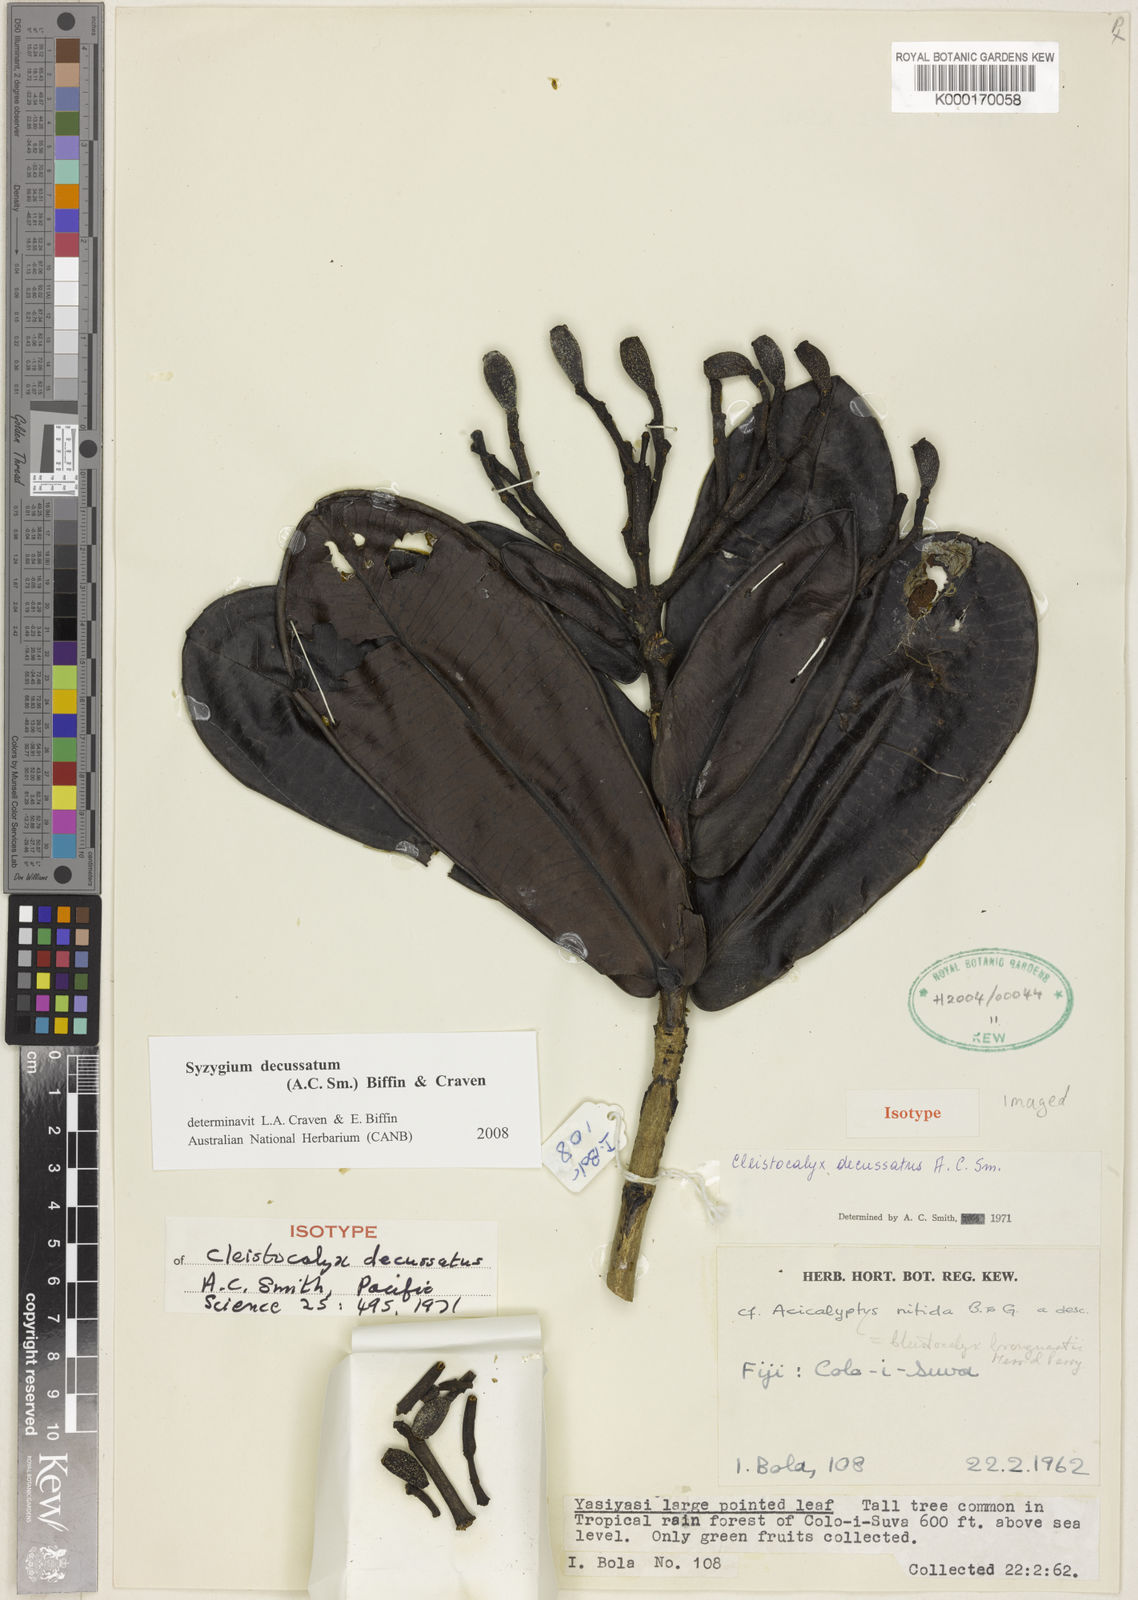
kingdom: Plantae
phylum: Tracheophyta
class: Magnoliopsida
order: Myrtales
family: Myrtaceae
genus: Syzygium
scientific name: Syzygium
